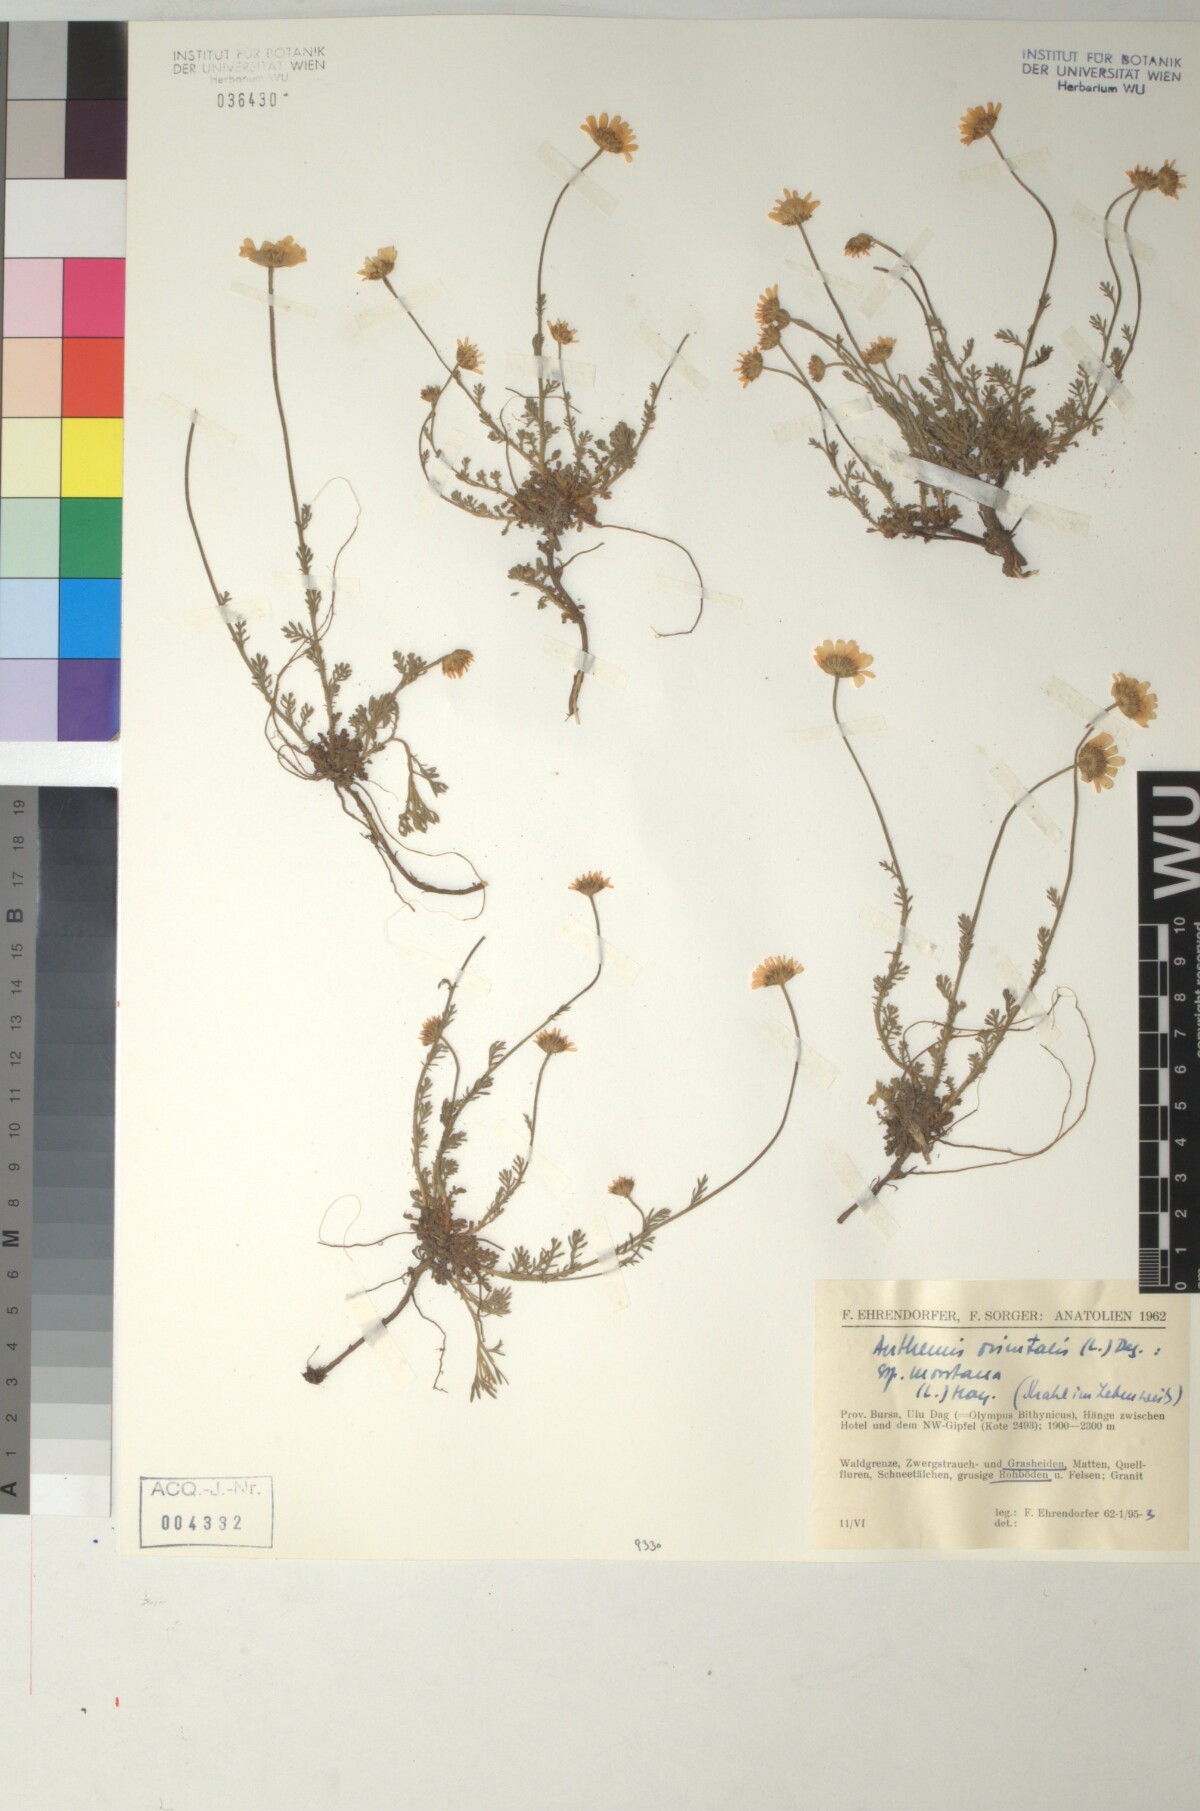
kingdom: Plantae
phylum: Tracheophyta
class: Magnoliopsida
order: Asterales
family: Asteraceae
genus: Anthemis
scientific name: Anthemis orientalis
